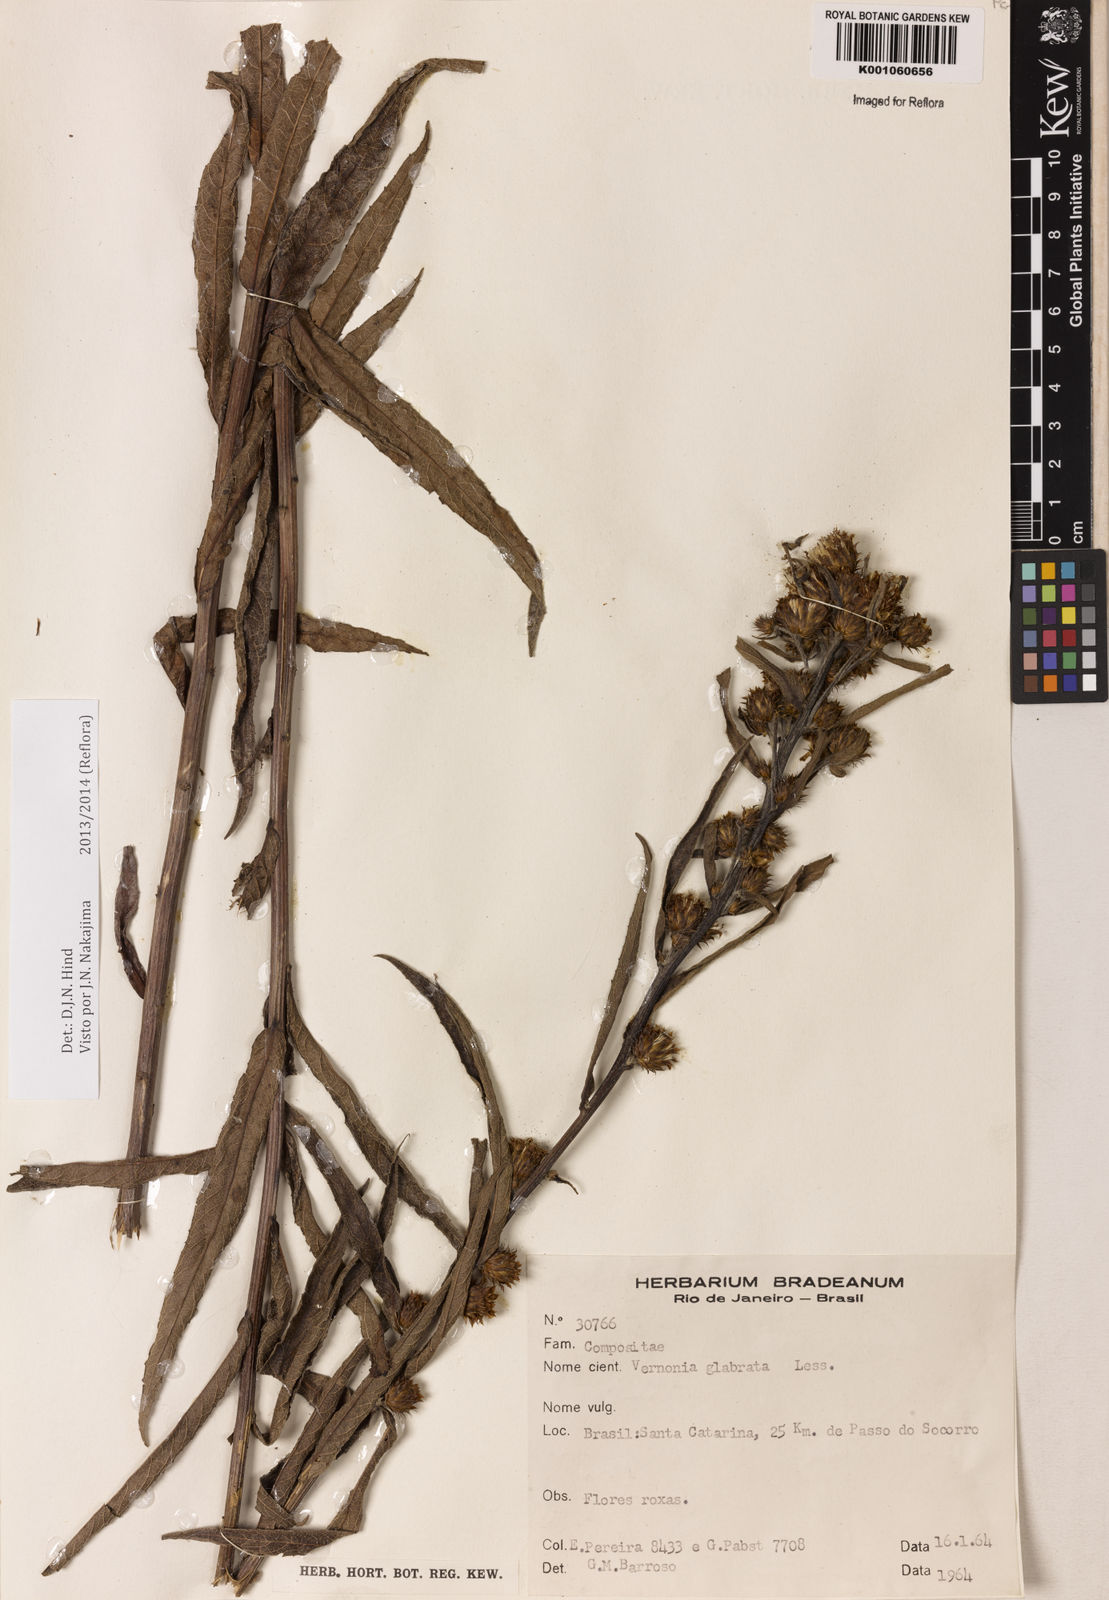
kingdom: Plantae
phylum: Tracheophyta
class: Magnoliopsida
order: Asterales
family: Asteraceae
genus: Lessingianthus
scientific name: Lessingianthus glabratus
